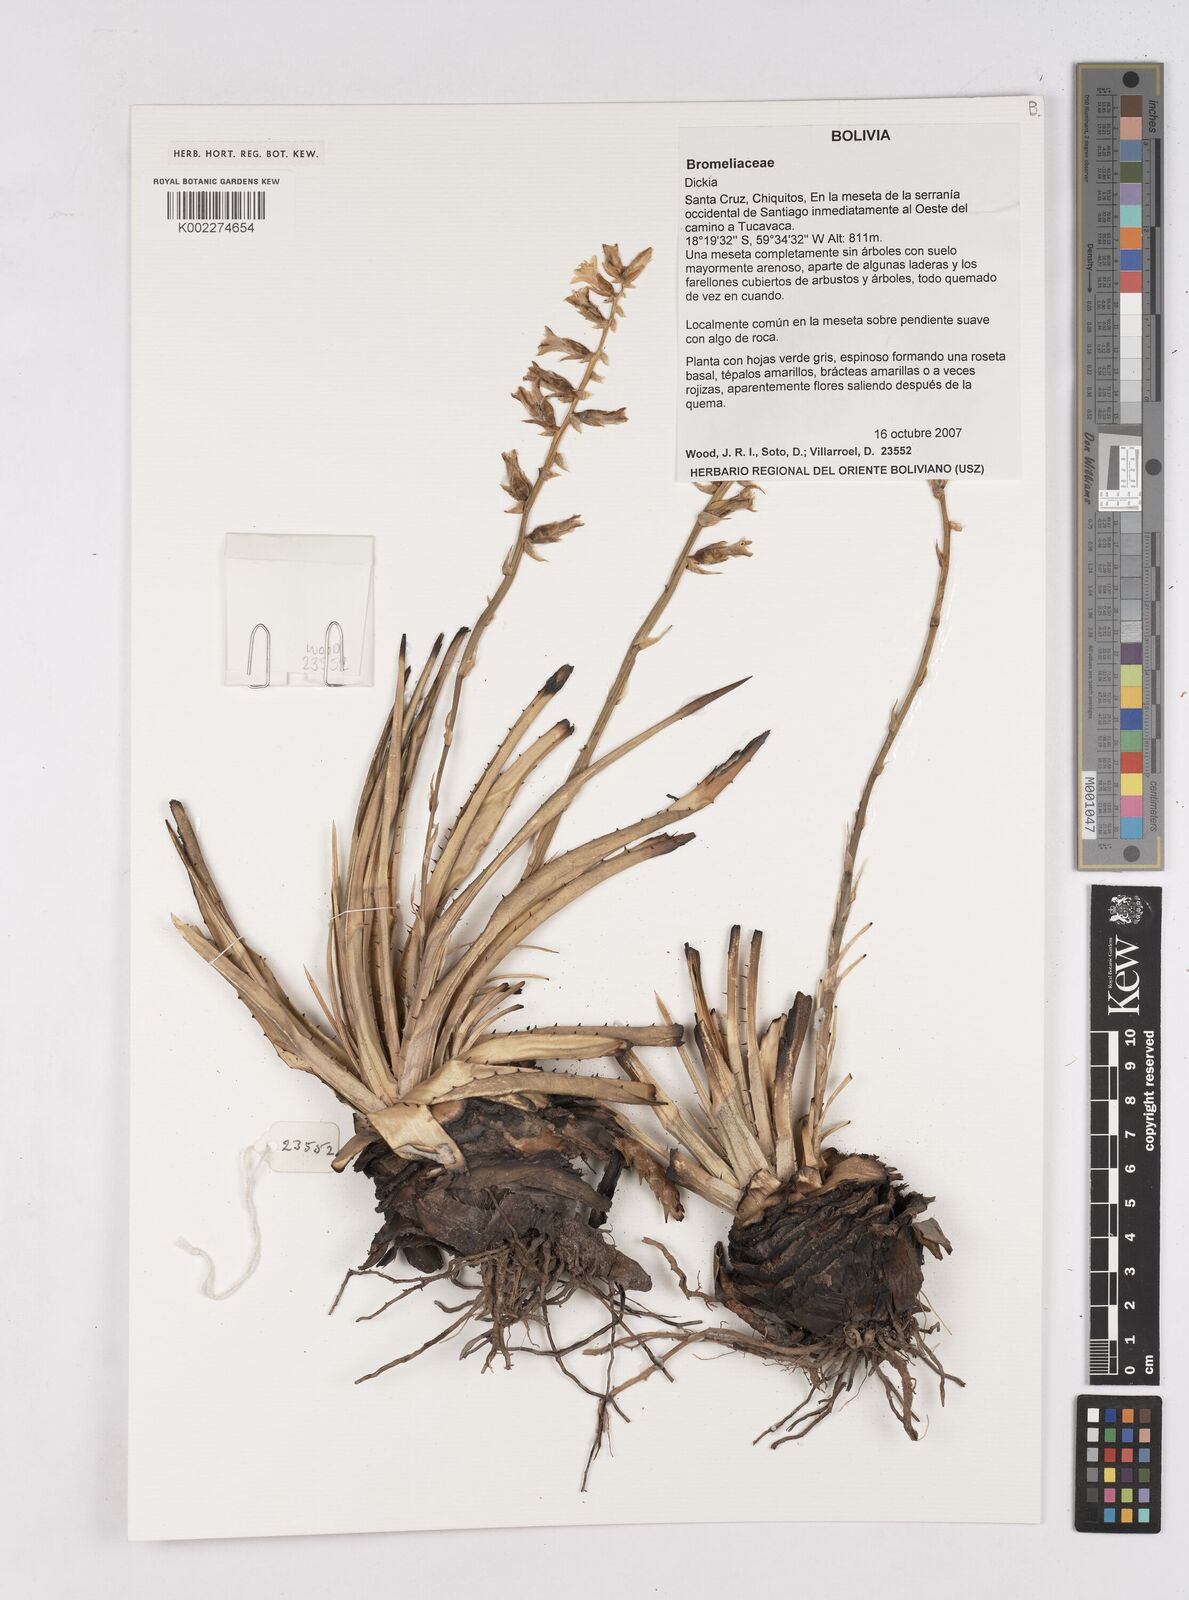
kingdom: Plantae
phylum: Tracheophyta
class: Liliopsida
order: Poales
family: Bromeliaceae
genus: Dyckia
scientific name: Dyckia
